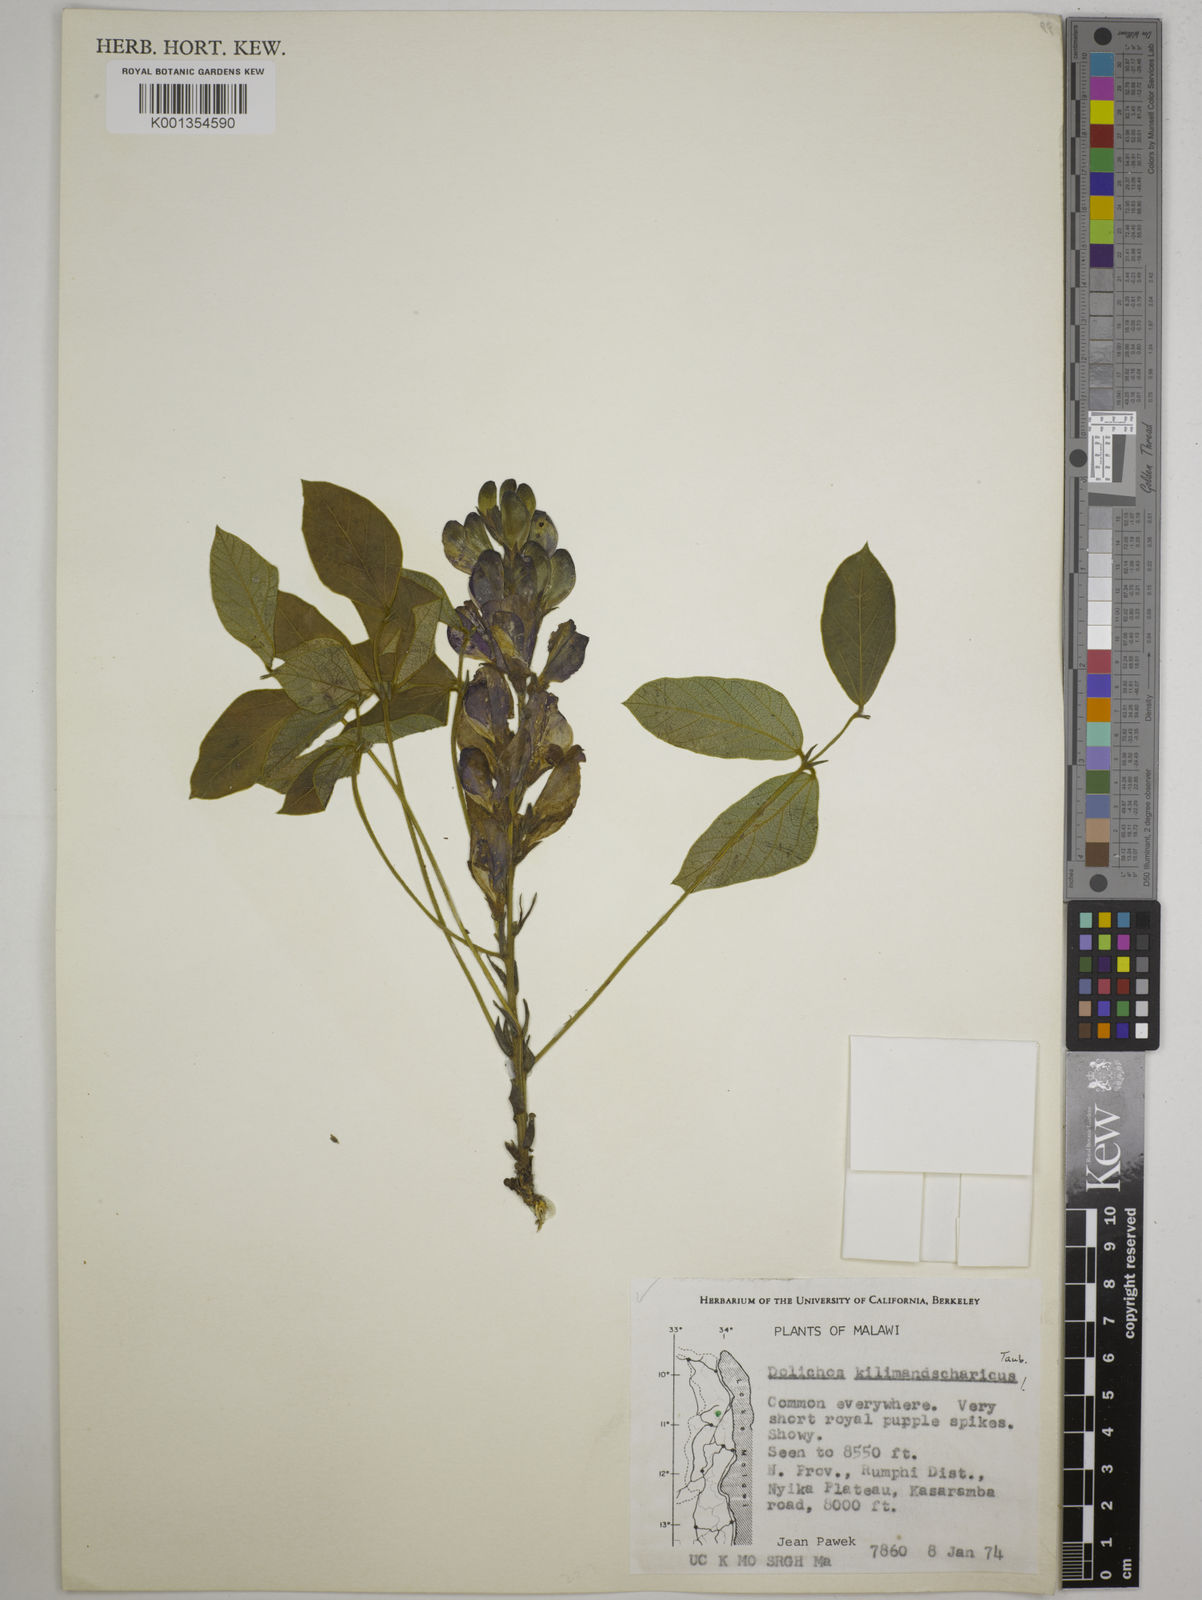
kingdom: Plantae
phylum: Tracheophyta
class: Magnoliopsida
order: Fabales
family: Fabaceae
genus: Dolichos
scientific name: Dolichos kilimandscharicus
